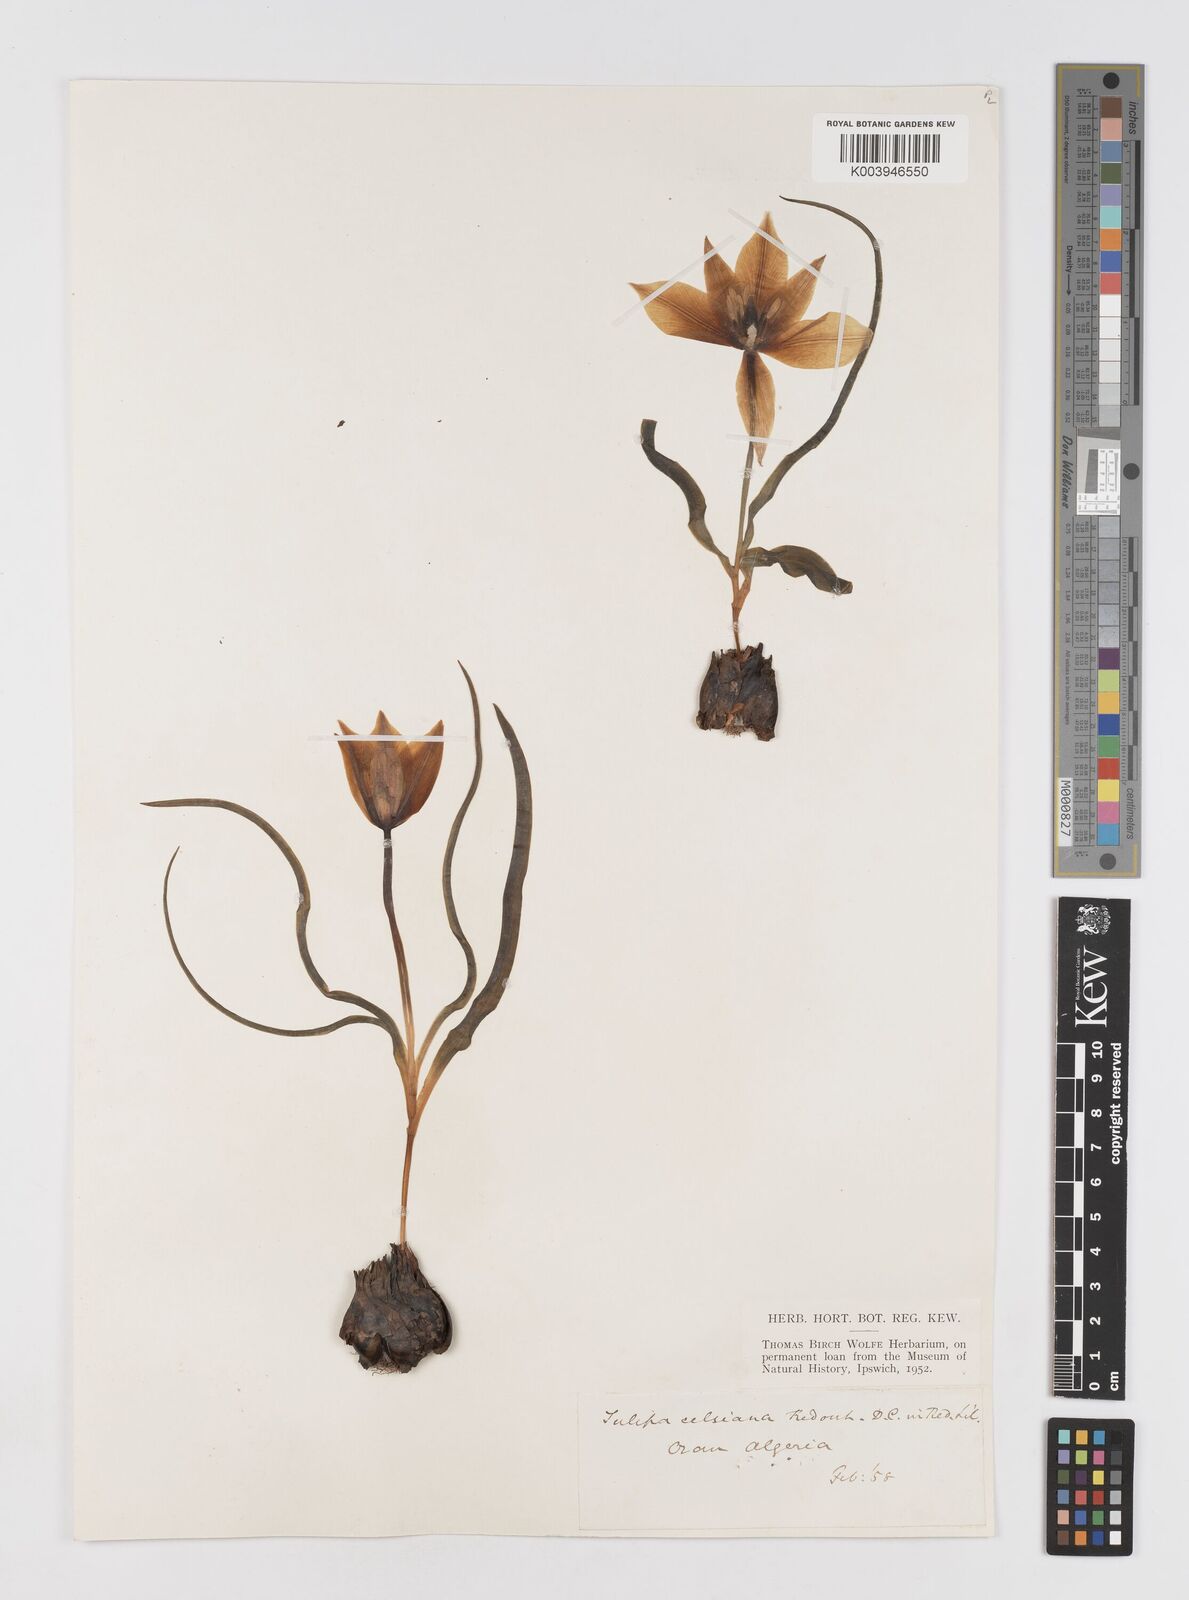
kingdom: Plantae
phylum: Tracheophyta
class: Liliopsida
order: Liliales
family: Liliaceae
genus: Tulipa
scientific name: Tulipa sylvestris
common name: Wild tulip
